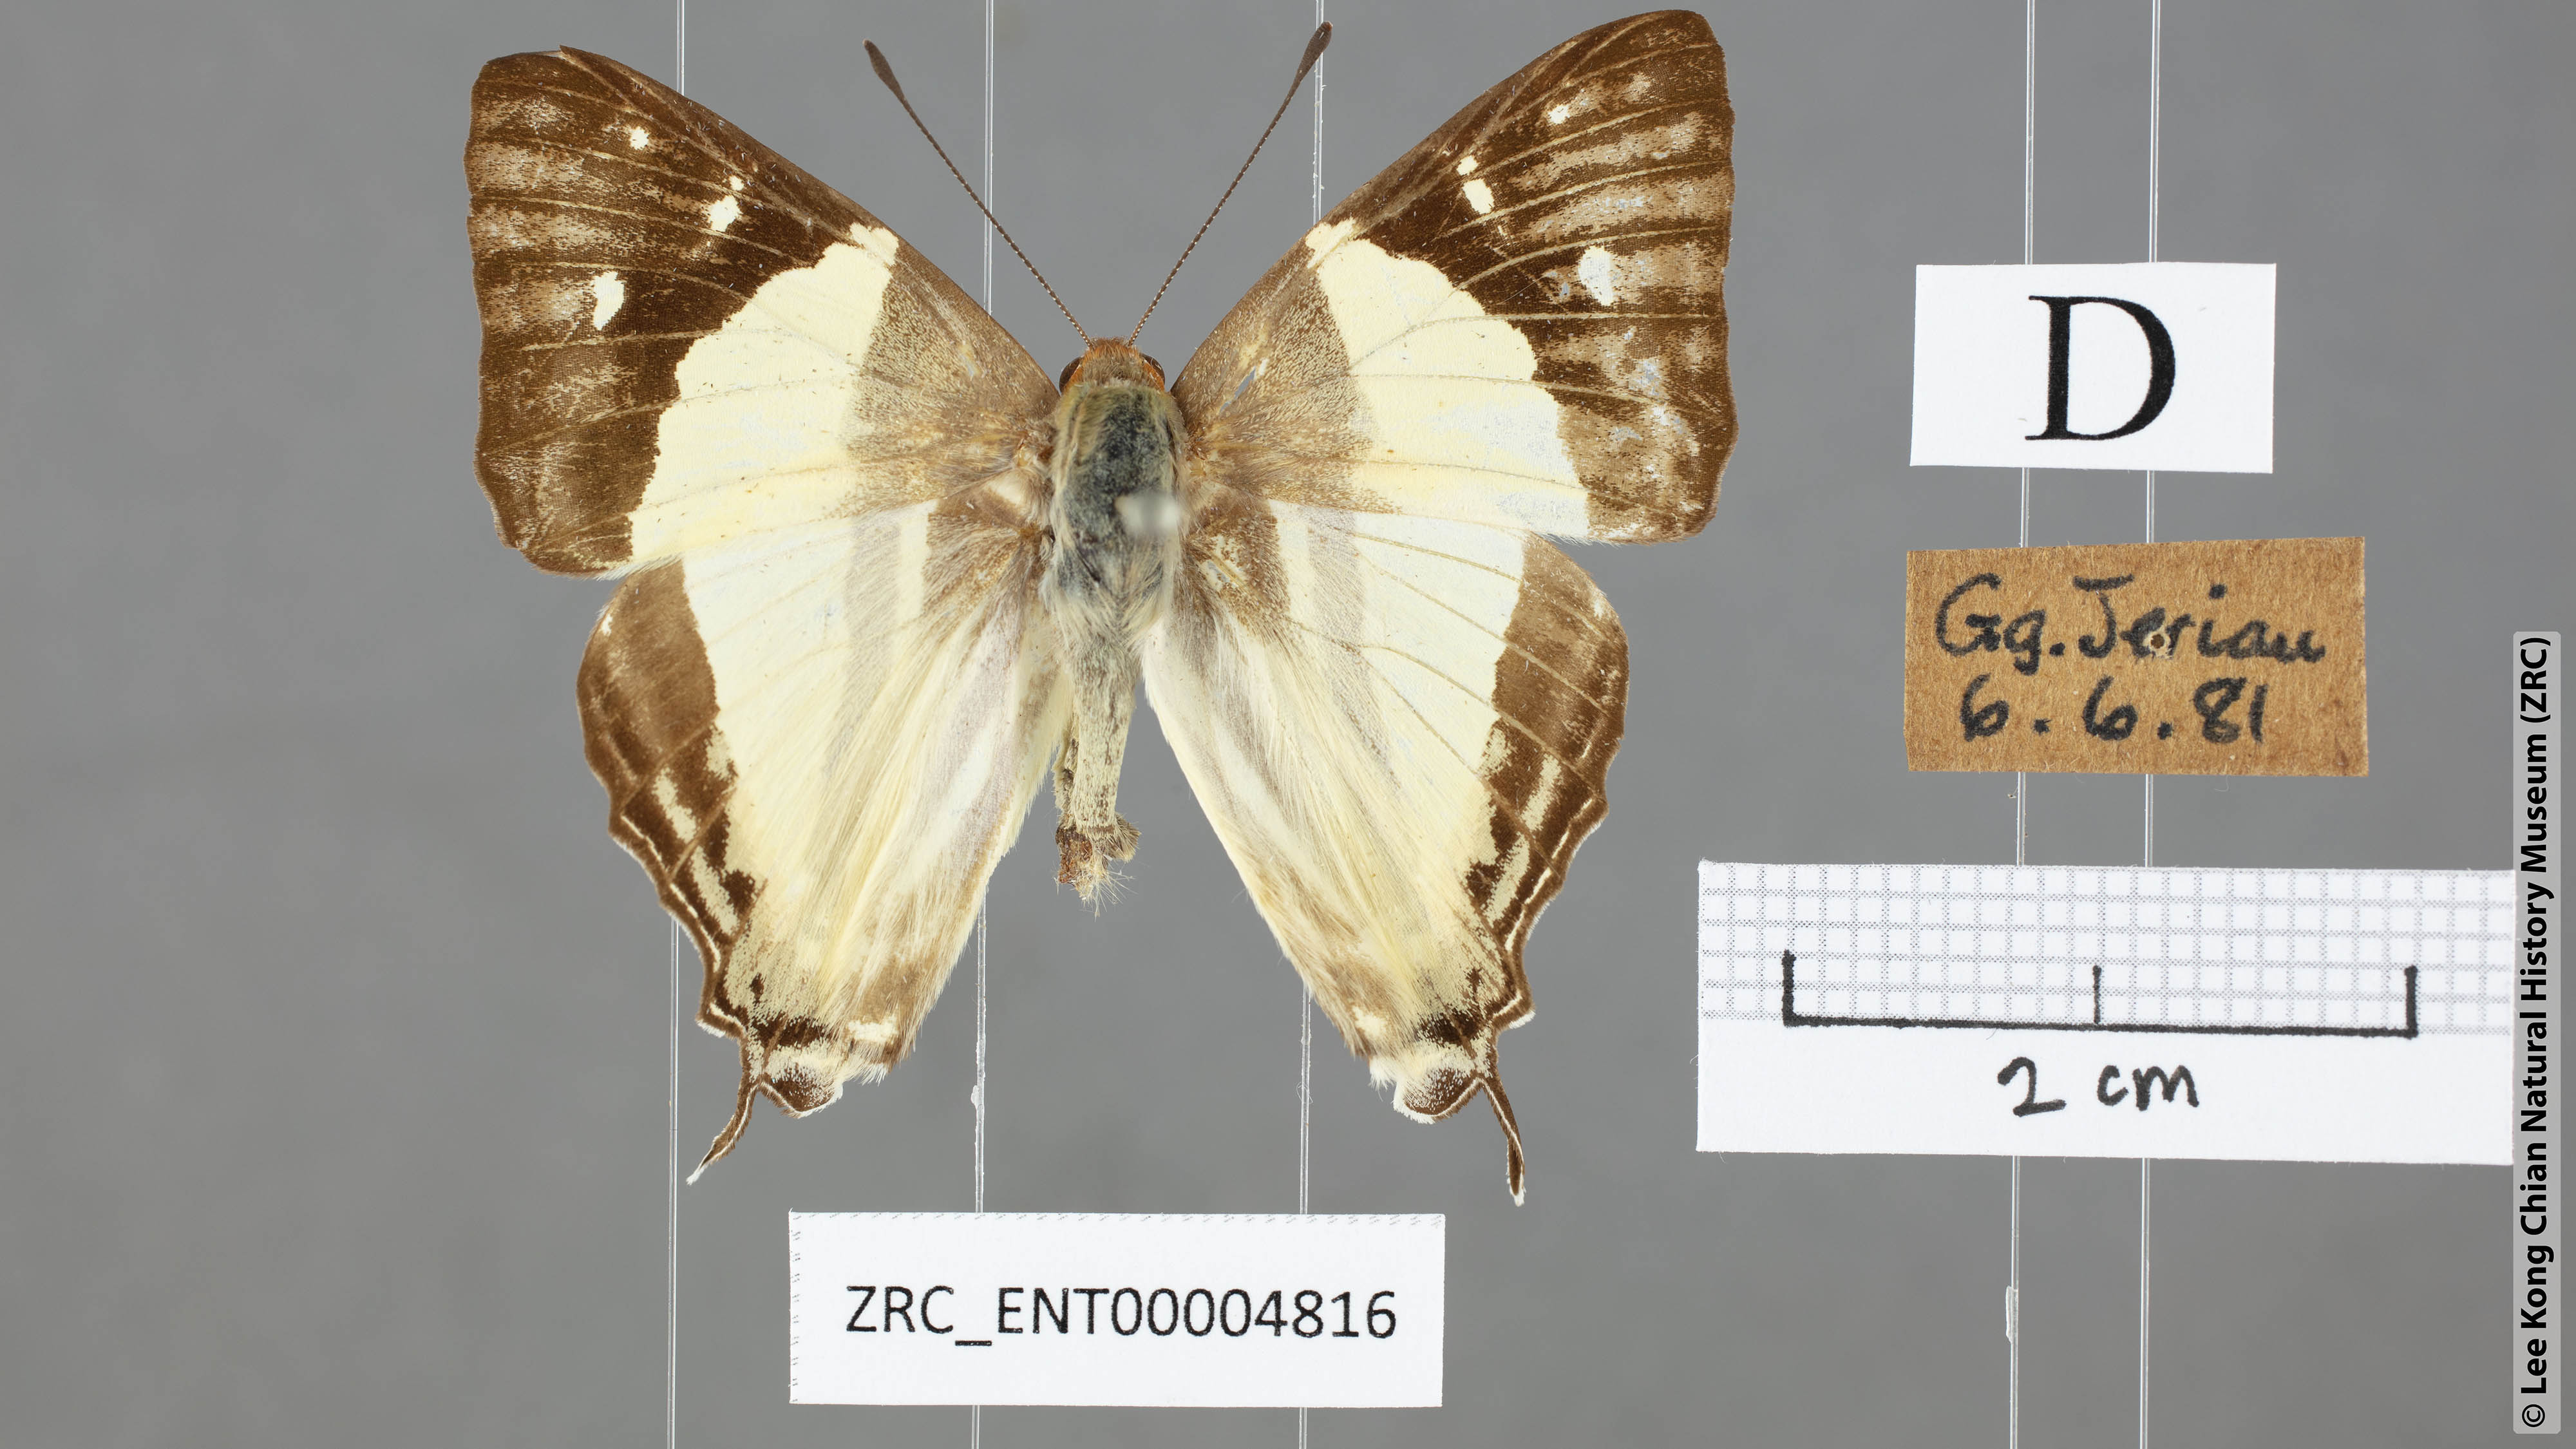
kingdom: Animalia
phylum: Arthropoda
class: Insecta
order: Lepidoptera
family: Lycaenidae
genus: Dodona
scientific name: Dodona egeon
